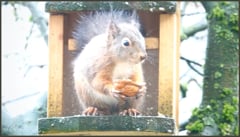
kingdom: Animalia
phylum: Chordata
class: Mammalia
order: Rodentia
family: Sciuridae
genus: Sciurus
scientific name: Sciurus vulgaris
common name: Eurasian red squirrel
